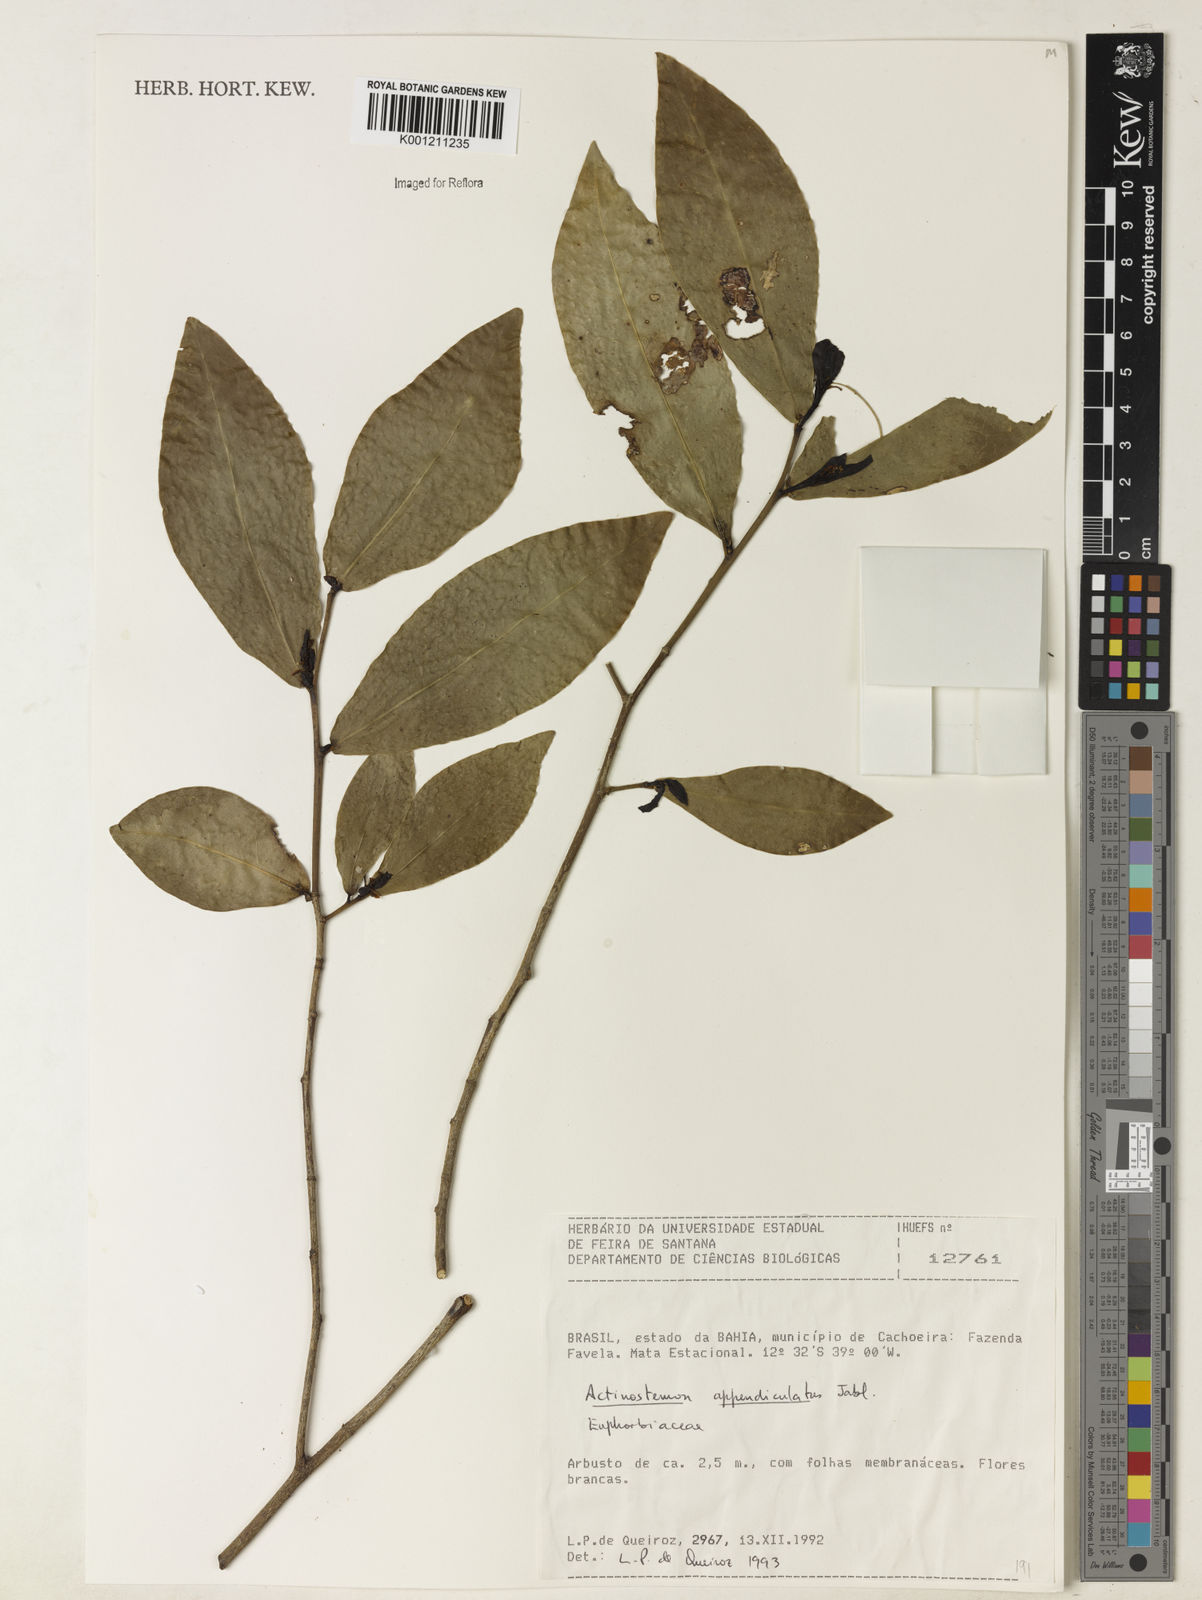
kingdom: Plantae
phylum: Tracheophyta
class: Magnoliopsida
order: Malpighiales
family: Euphorbiaceae
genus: Actinostemon
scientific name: Actinostemon lasiocarpus
